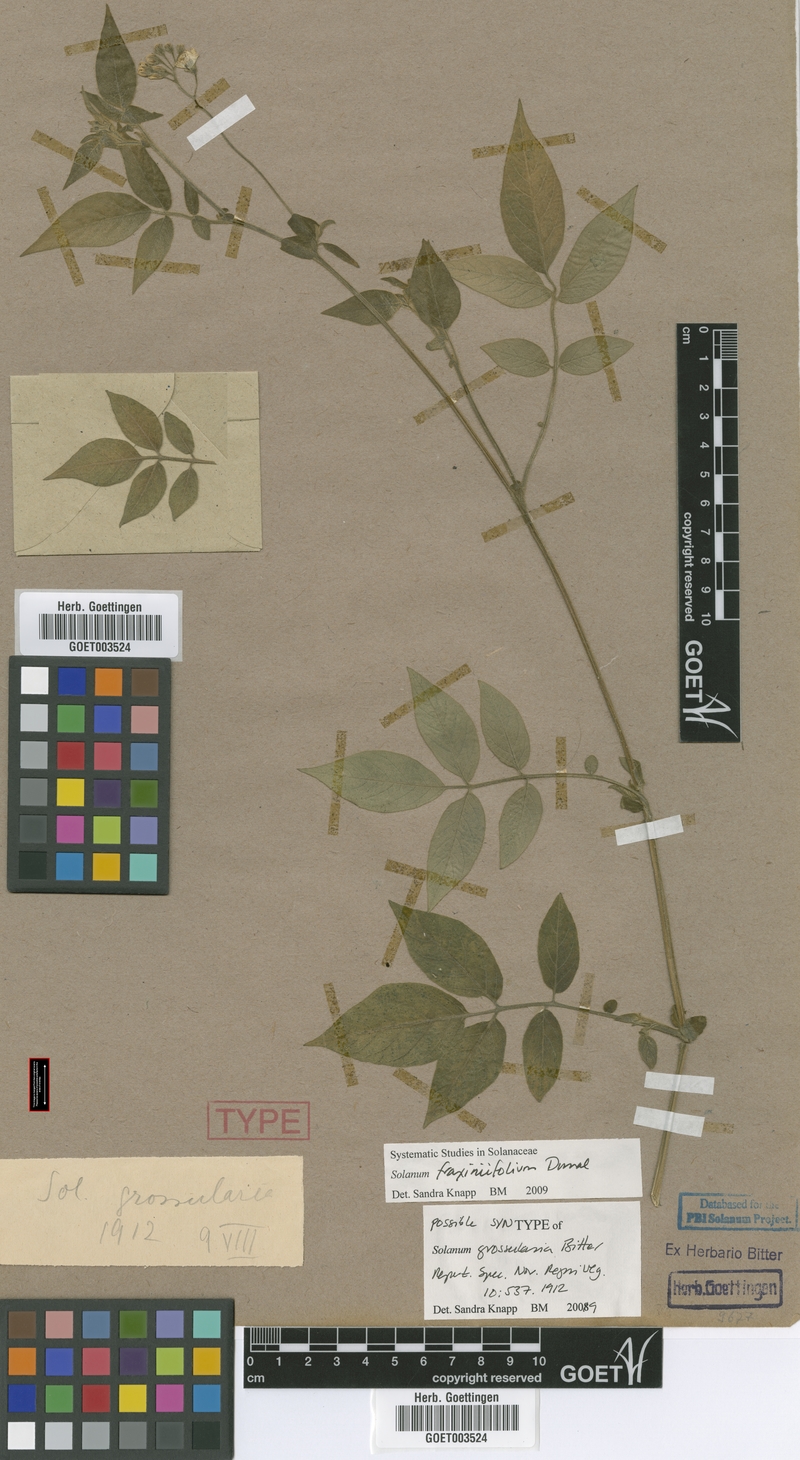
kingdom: Plantae
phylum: Tracheophyta
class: Magnoliopsida
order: Solanales
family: Solanaceae
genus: Solanum
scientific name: Solanum fraxinifolium
